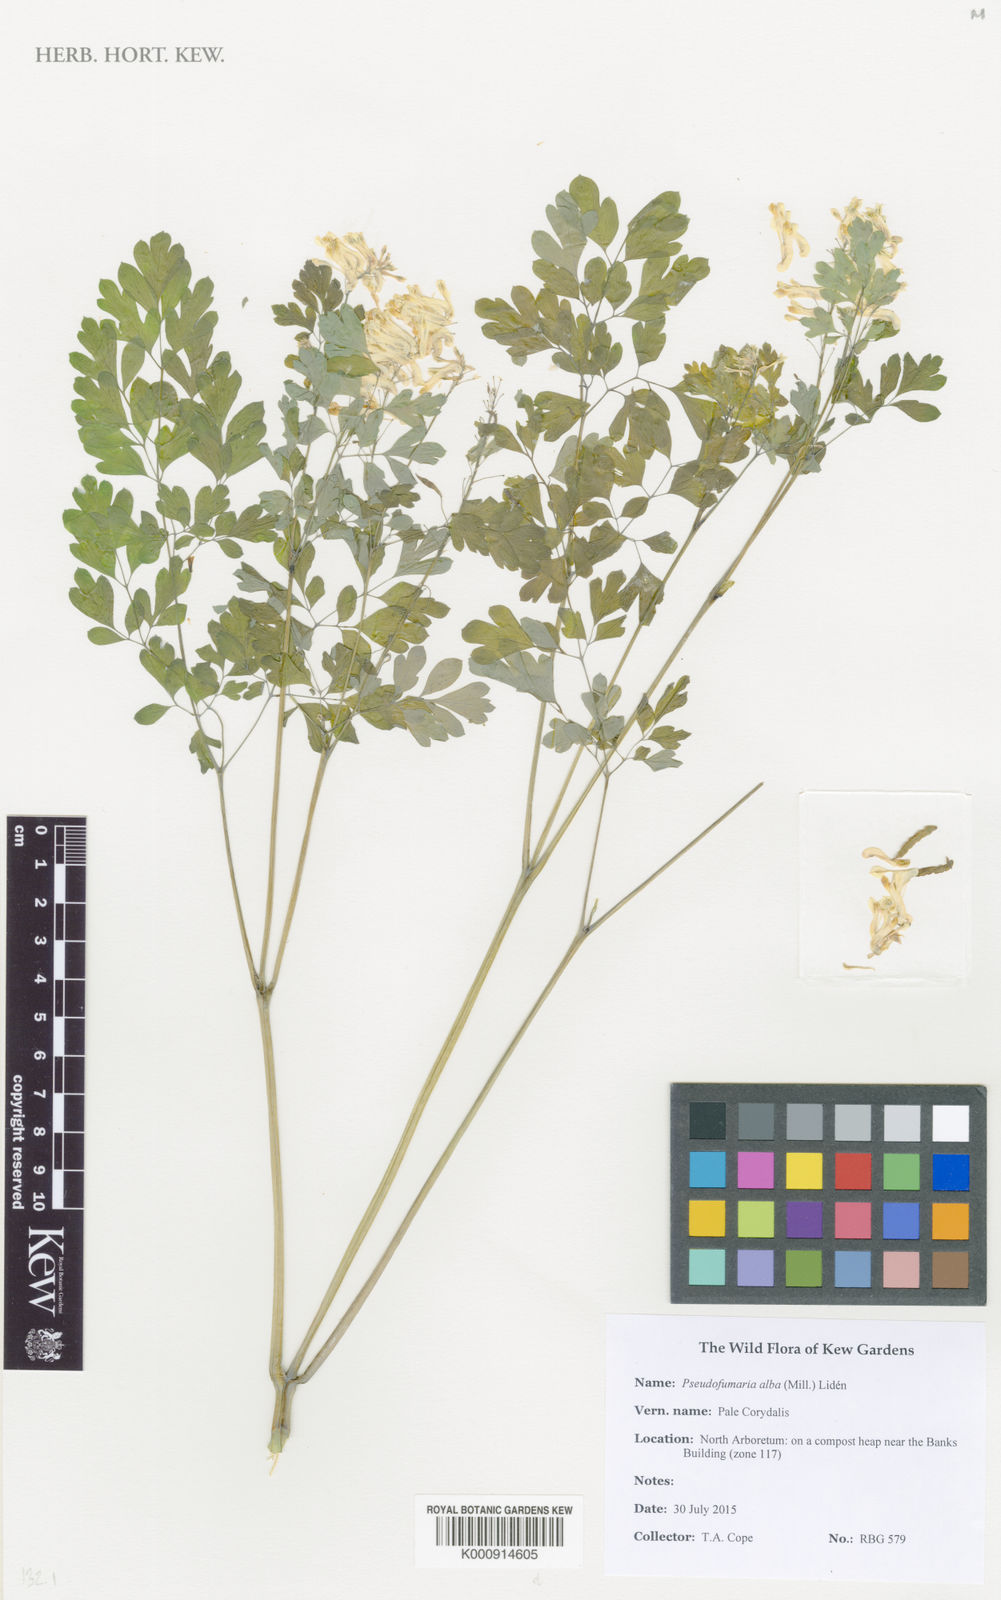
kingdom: Plantae
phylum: Tracheophyta
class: Magnoliopsida
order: Ranunculales
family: Papaveraceae
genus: Pseudofumaria
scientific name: Pseudofumaria
